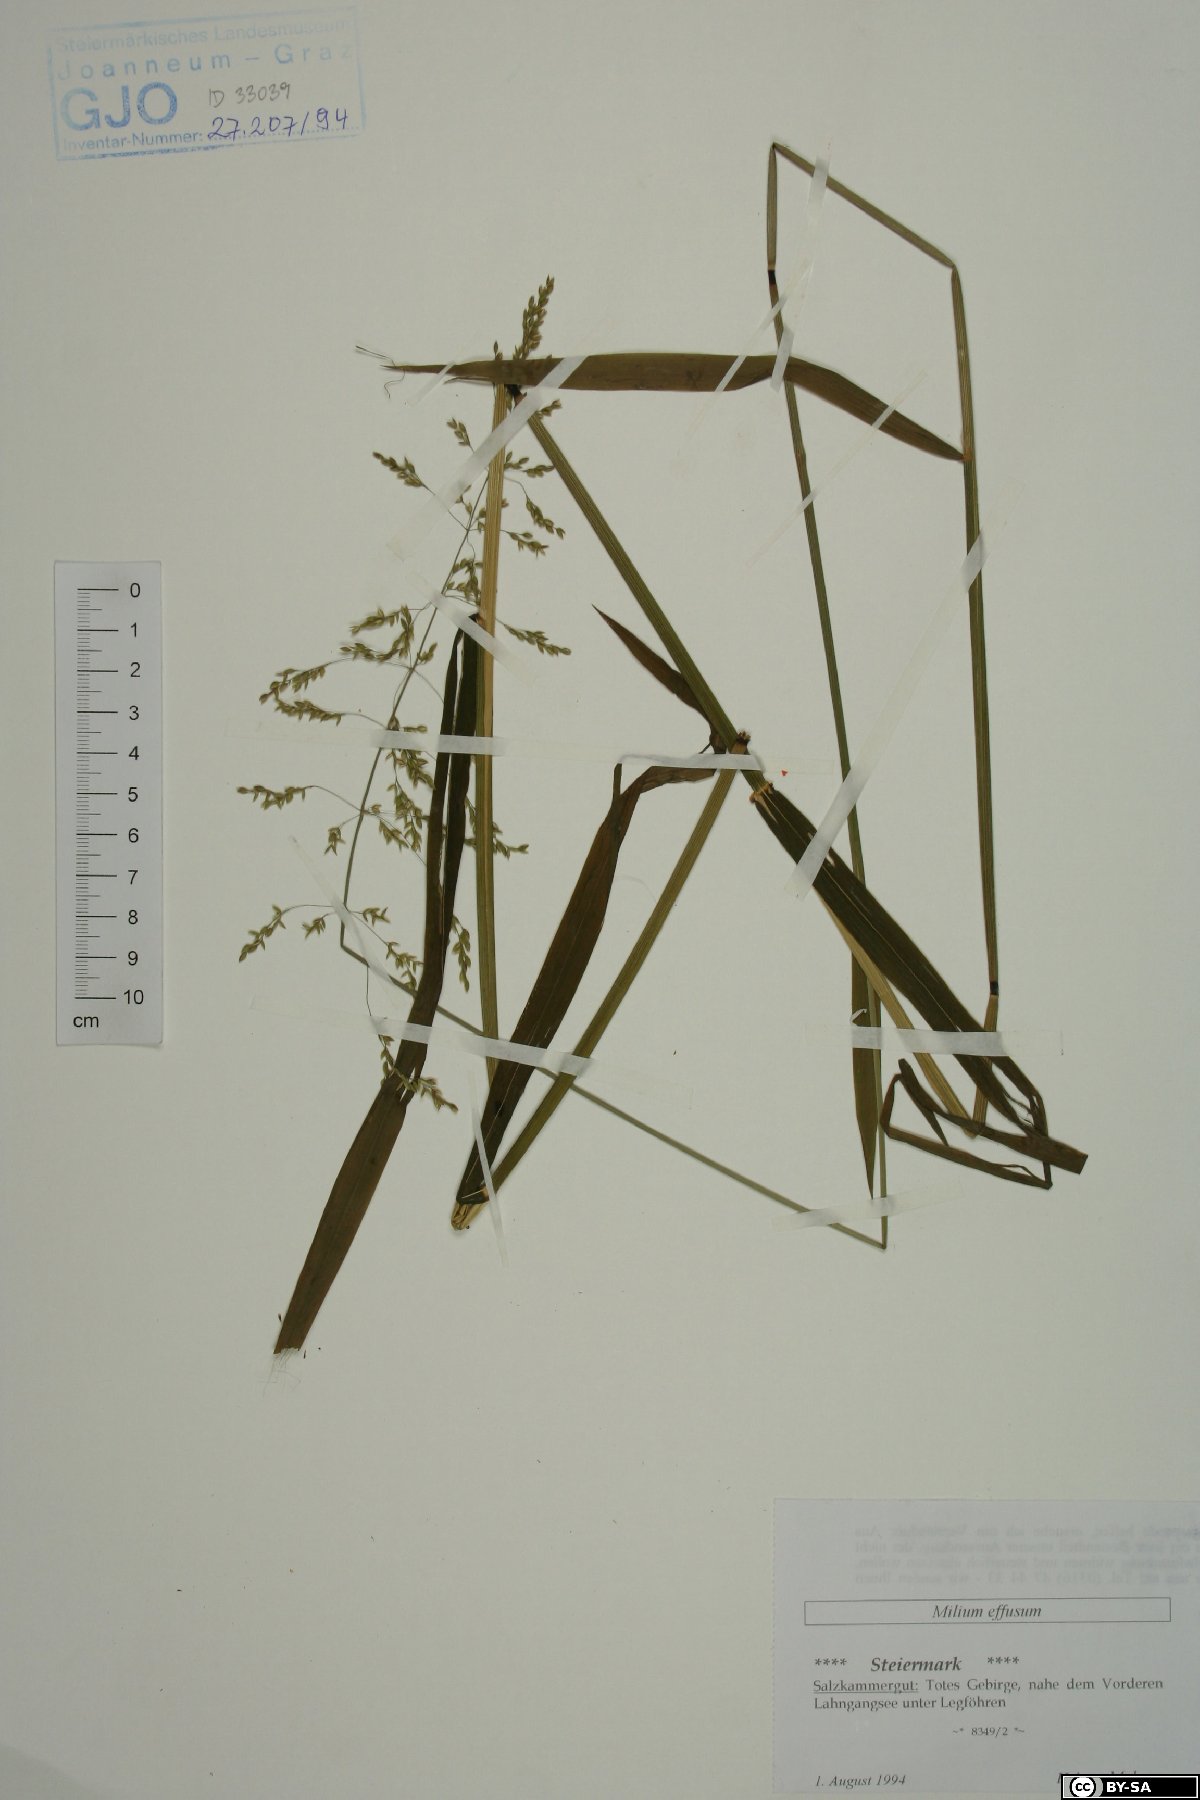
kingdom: Plantae
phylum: Tracheophyta
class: Liliopsida
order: Poales
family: Poaceae
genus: Milium
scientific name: Milium effusum
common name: Wood millet
